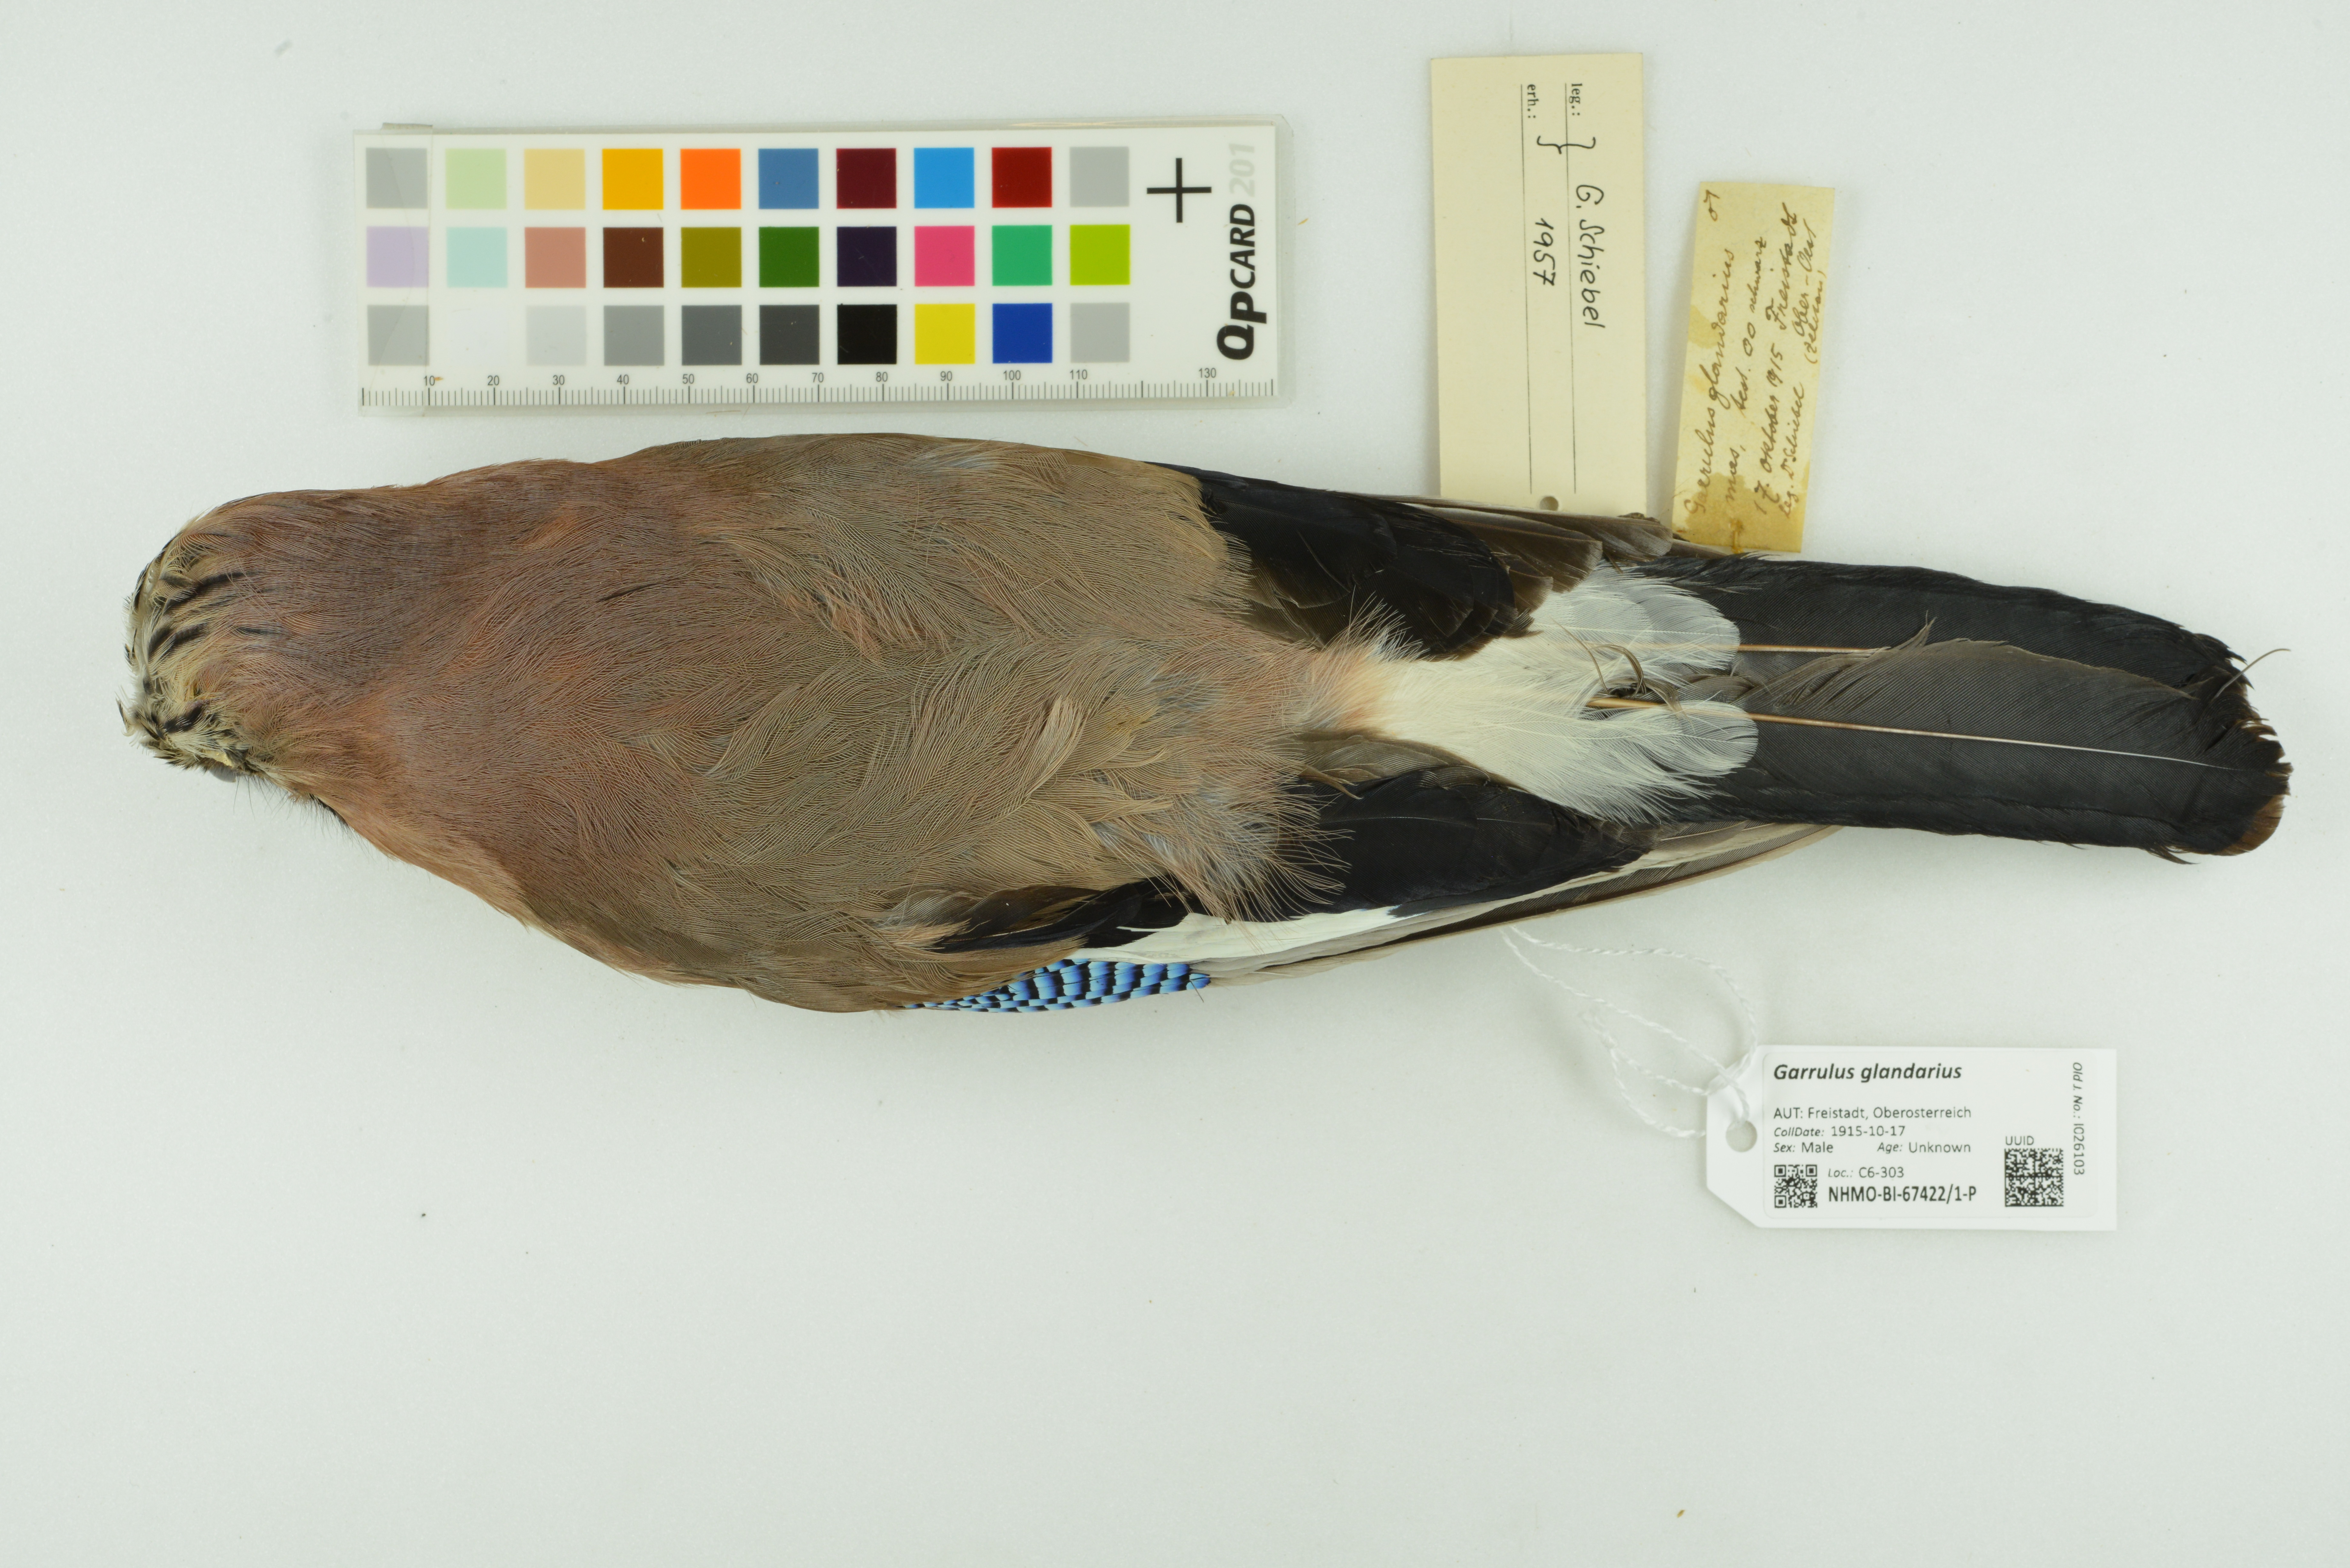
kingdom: Animalia
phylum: Chordata
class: Aves
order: Passeriformes
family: Corvidae
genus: Garrulus
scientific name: Garrulus glandarius
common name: Eurasian jay
